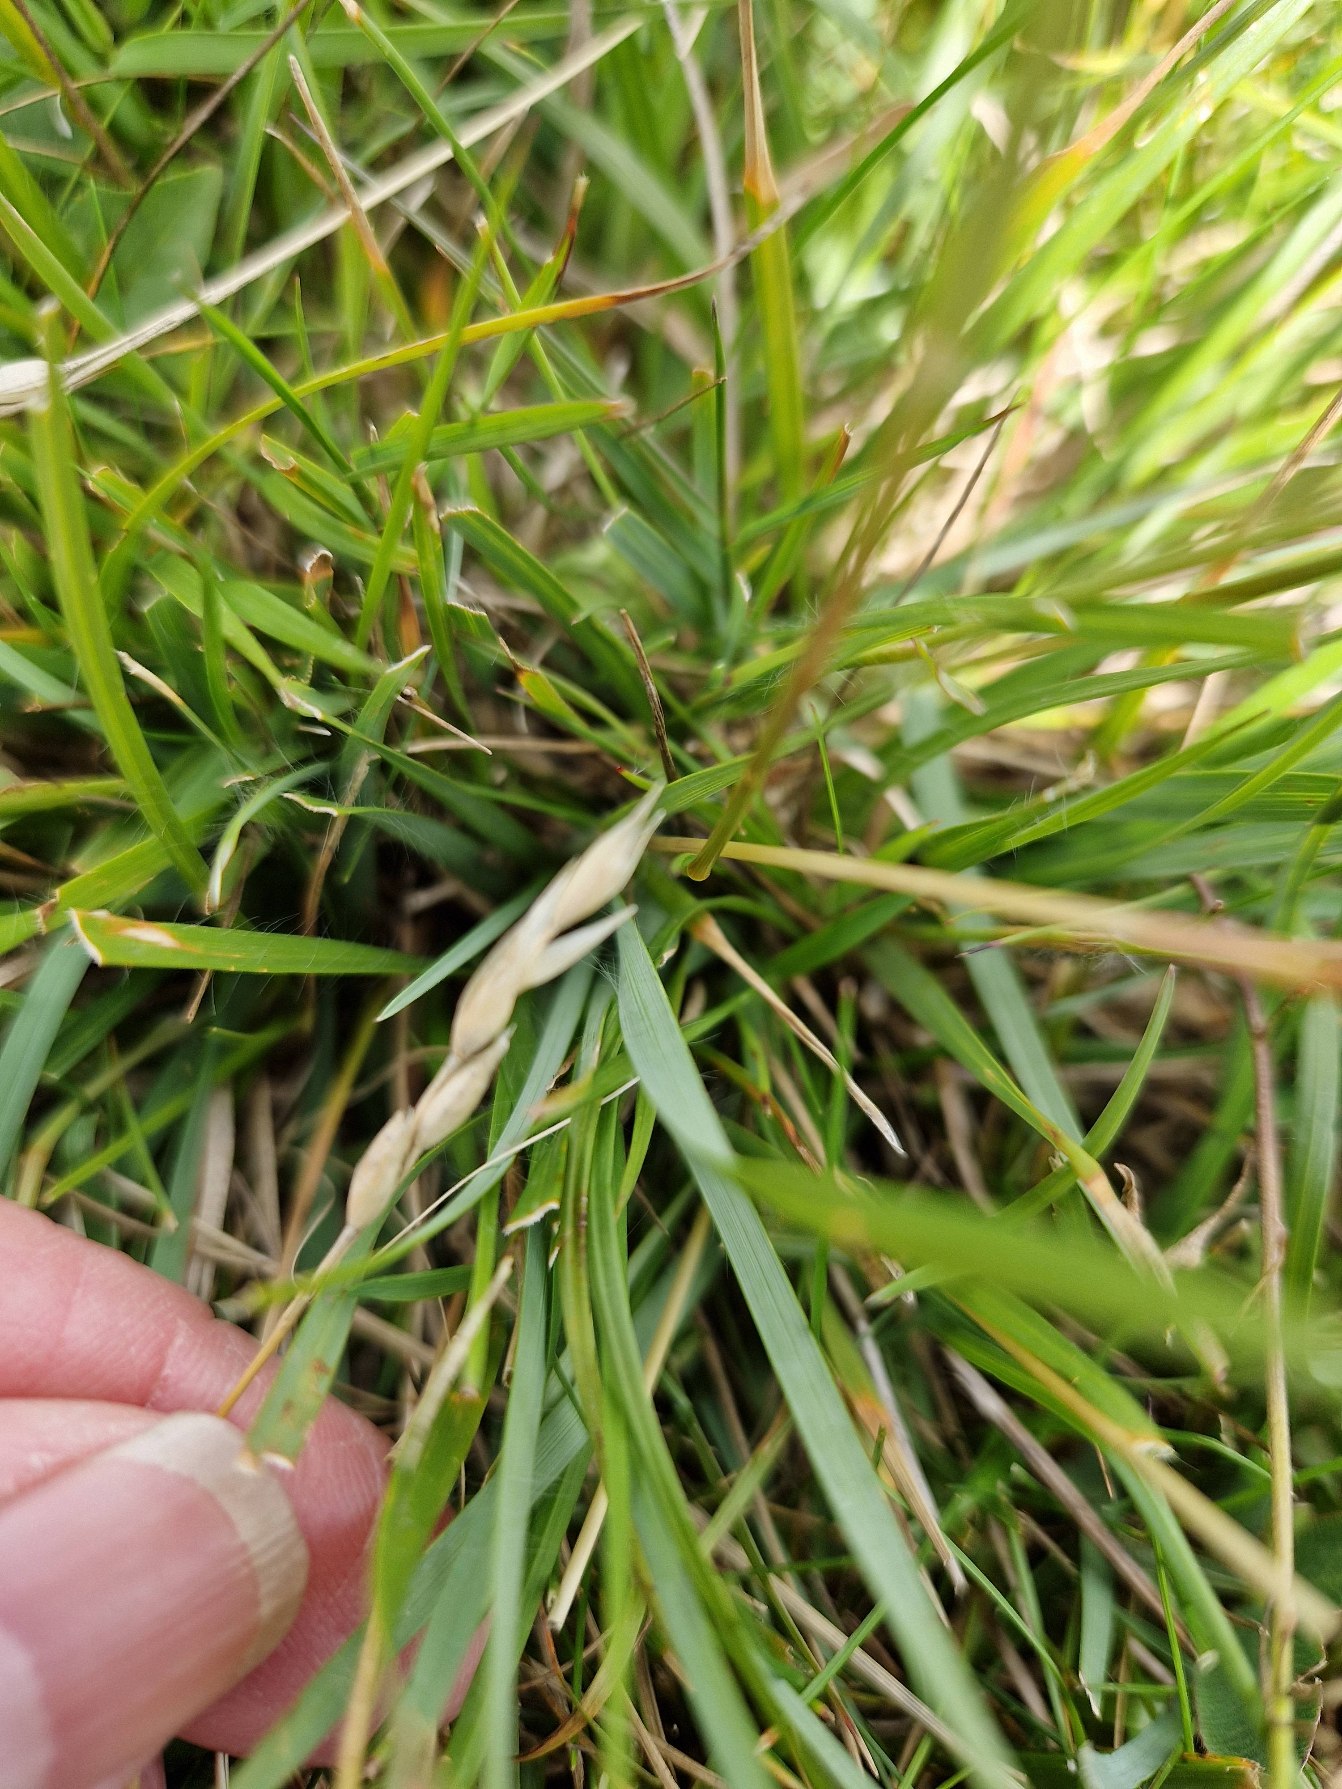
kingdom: Plantae
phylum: Tracheophyta
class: Liliopsida
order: Poales
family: Poaceae
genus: Danthonia
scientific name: Danthonia decumbens
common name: Tandbælg
